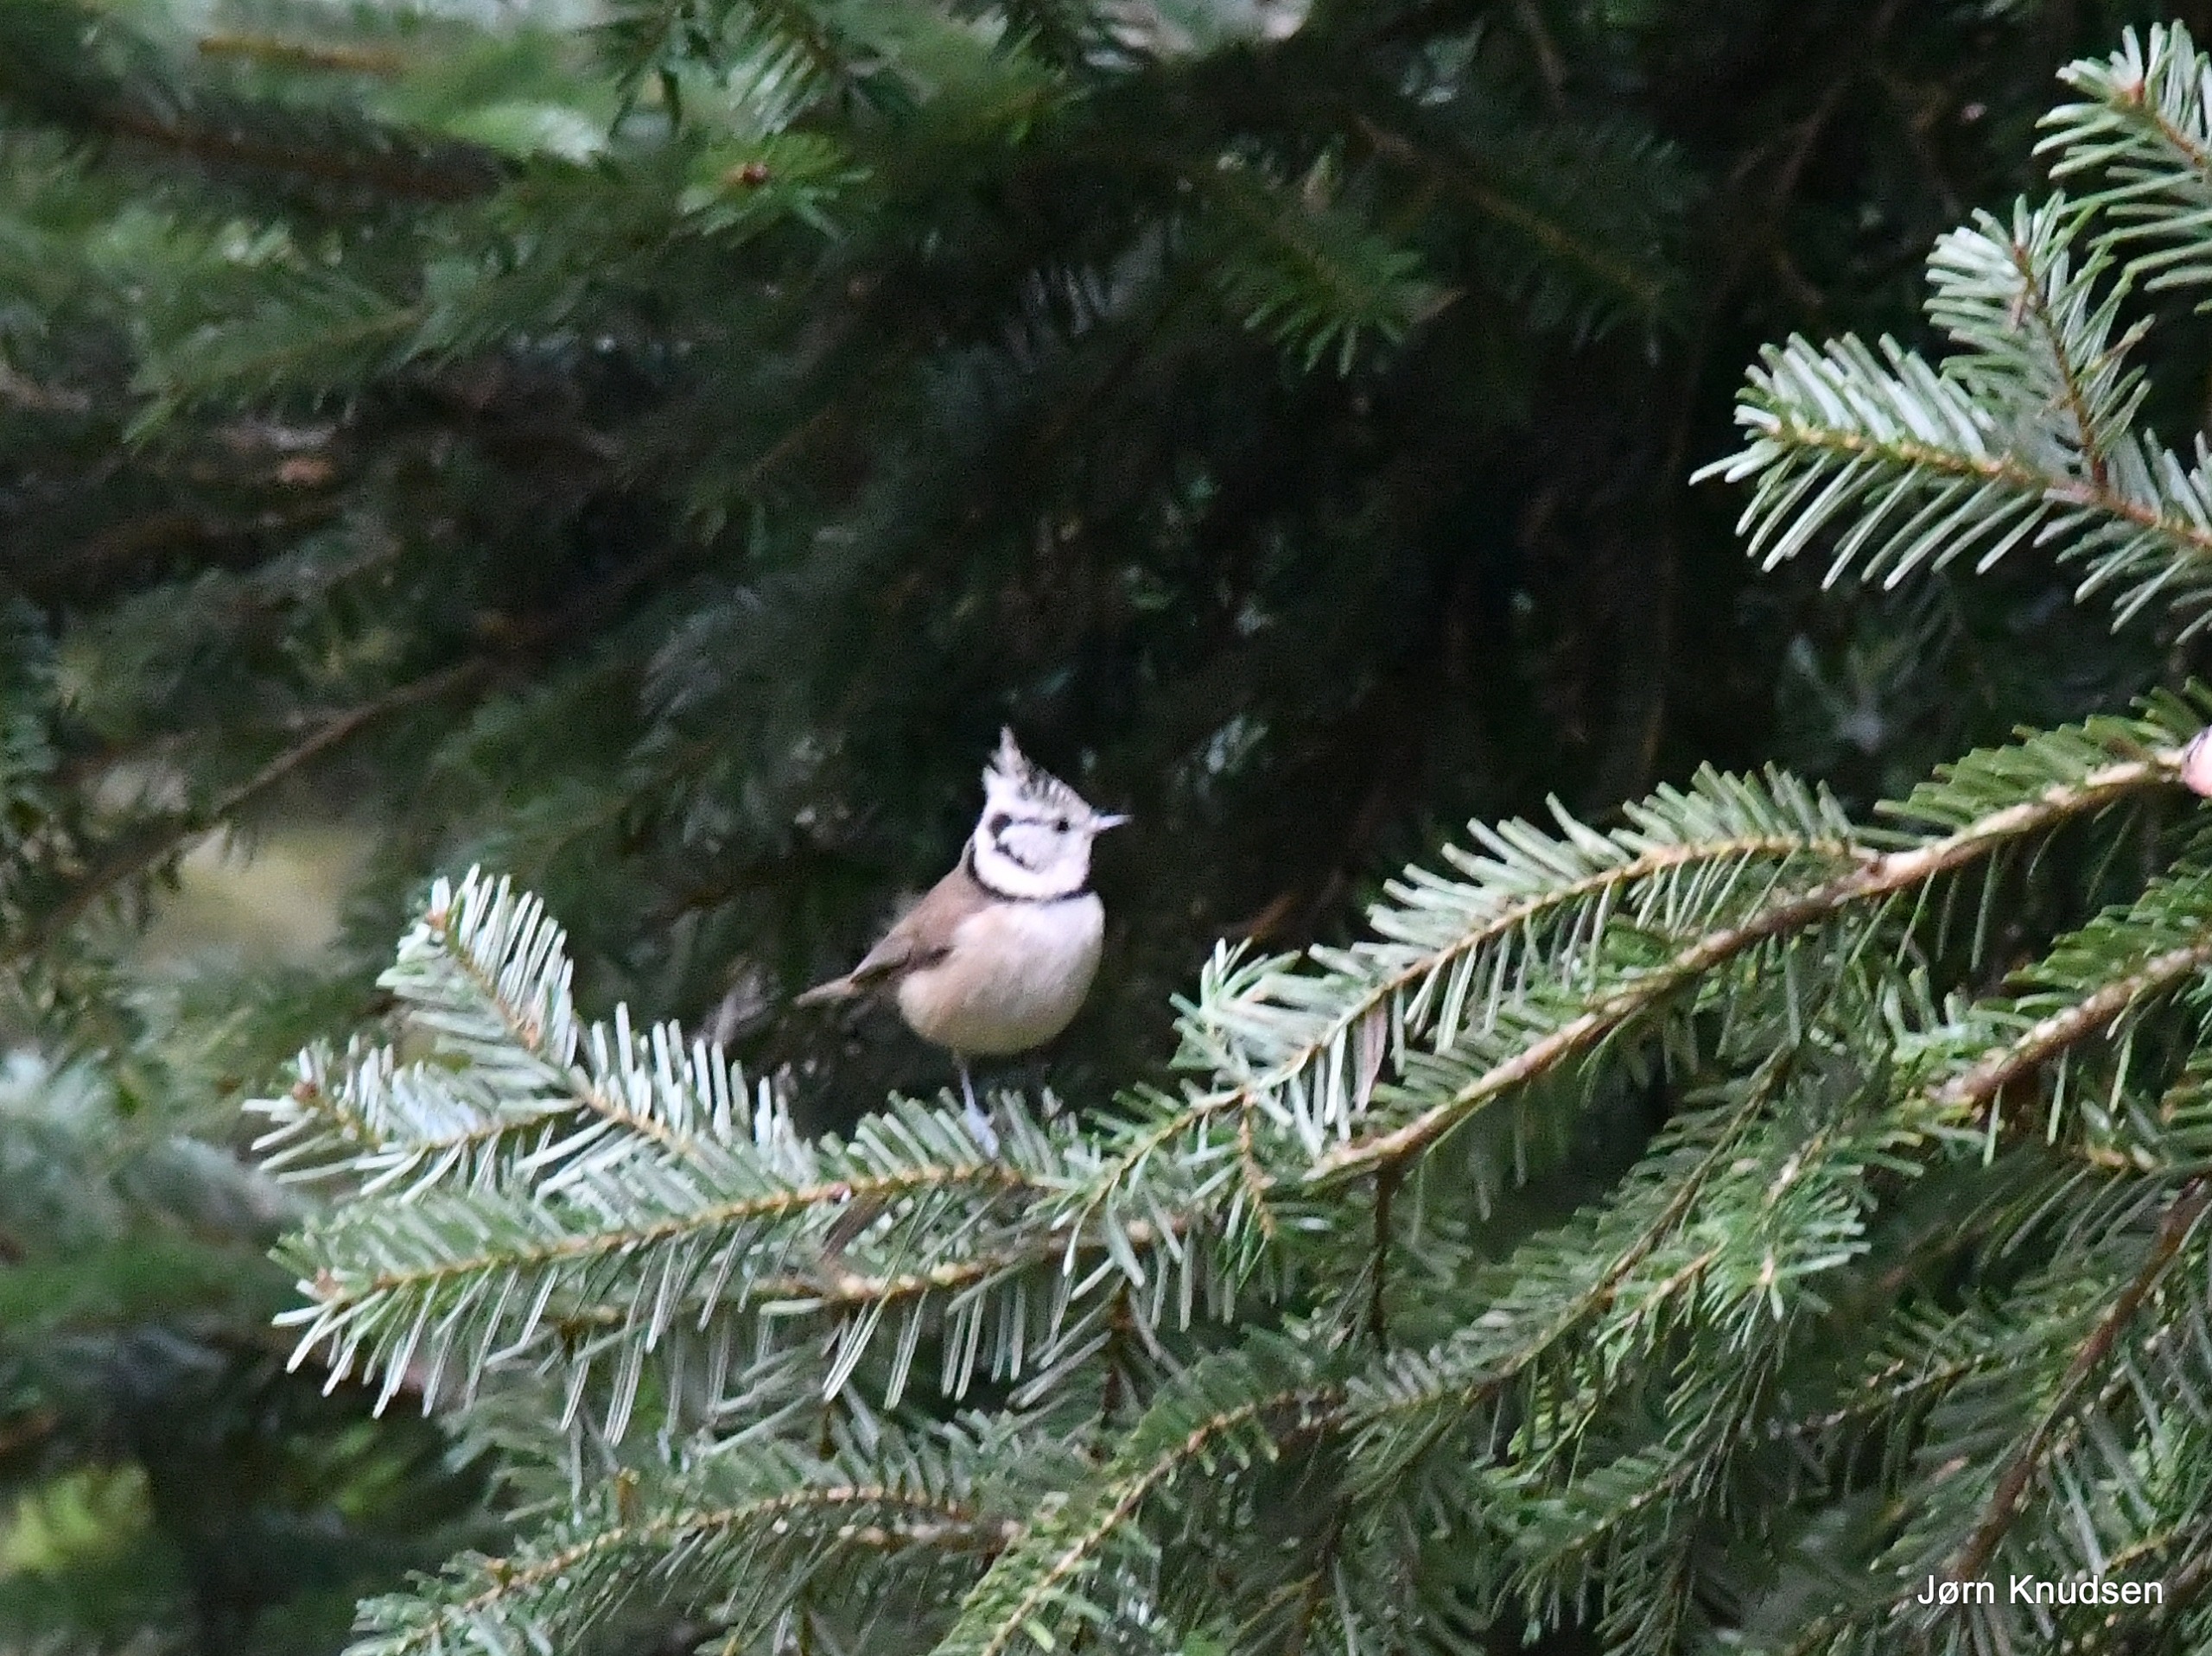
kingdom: Animalia
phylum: Chordata
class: Aves
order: Passeriformes
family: Paridae
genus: Lophophanes
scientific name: Lophophanes cristatus
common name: Topmejse
